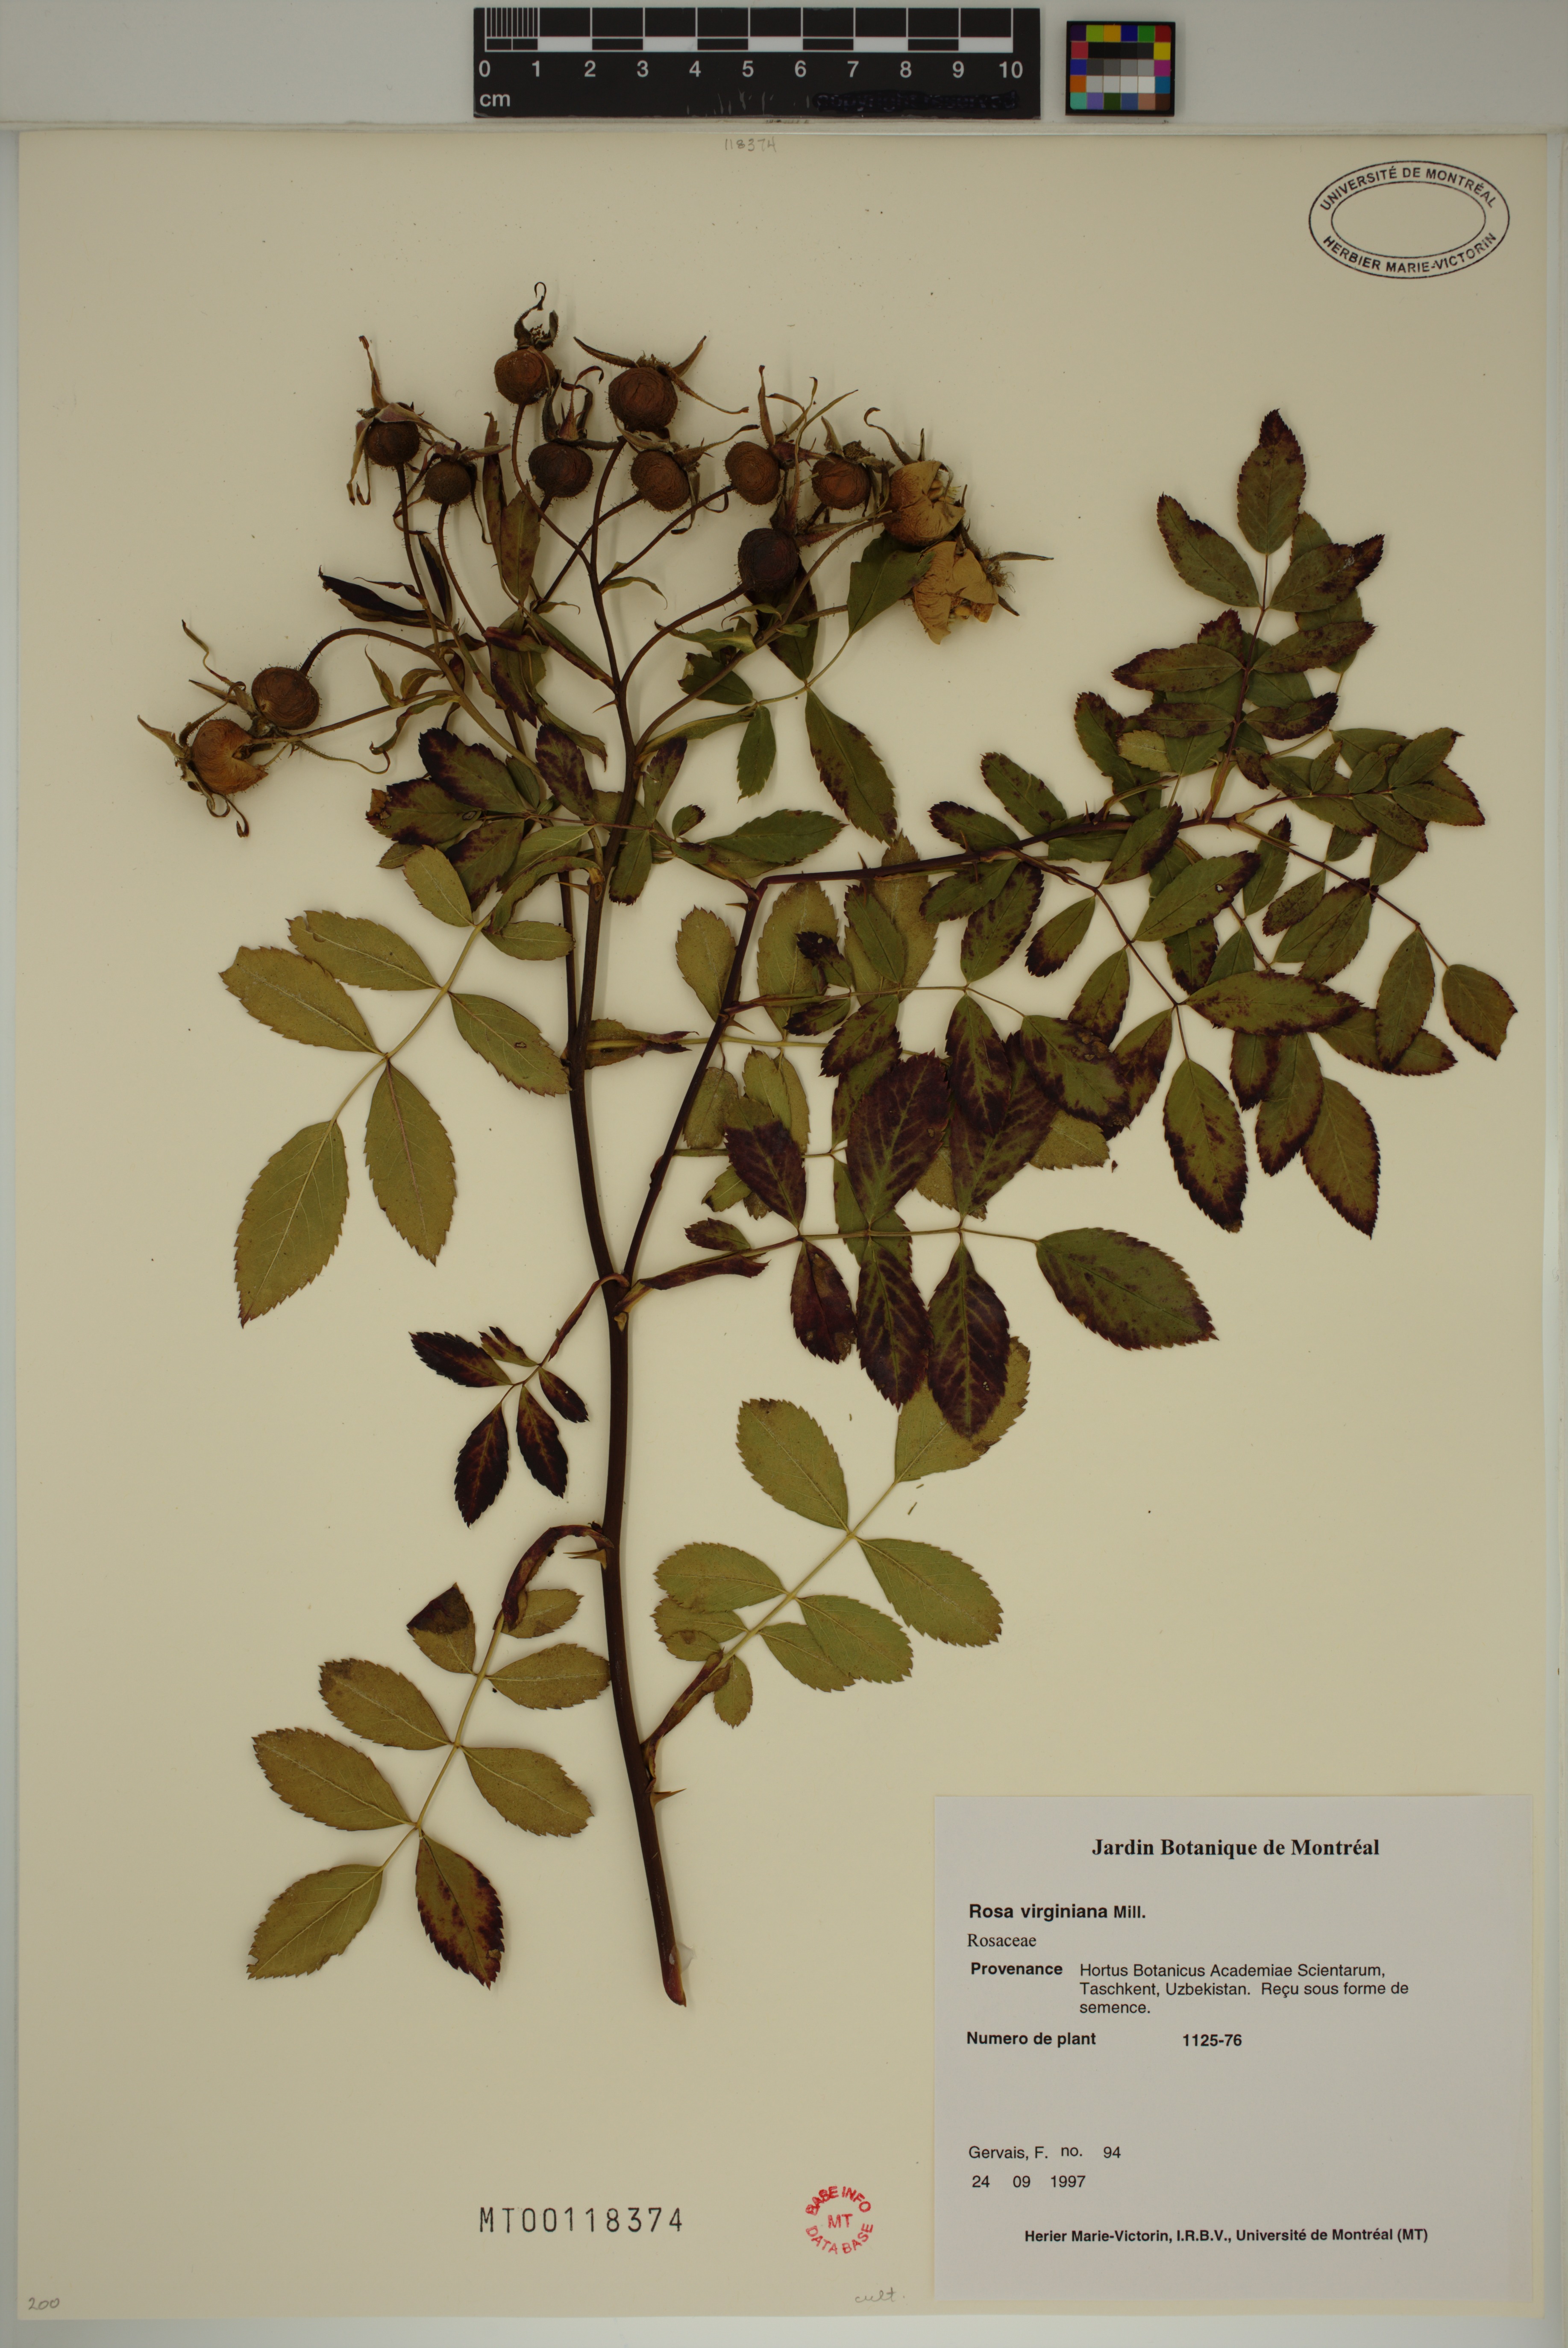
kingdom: Plantae
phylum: Tracheophyta
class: Magnoliopsida
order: Rosales
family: Rosaceae
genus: Rosa
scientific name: Rosa carolina
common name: Pasture rose
